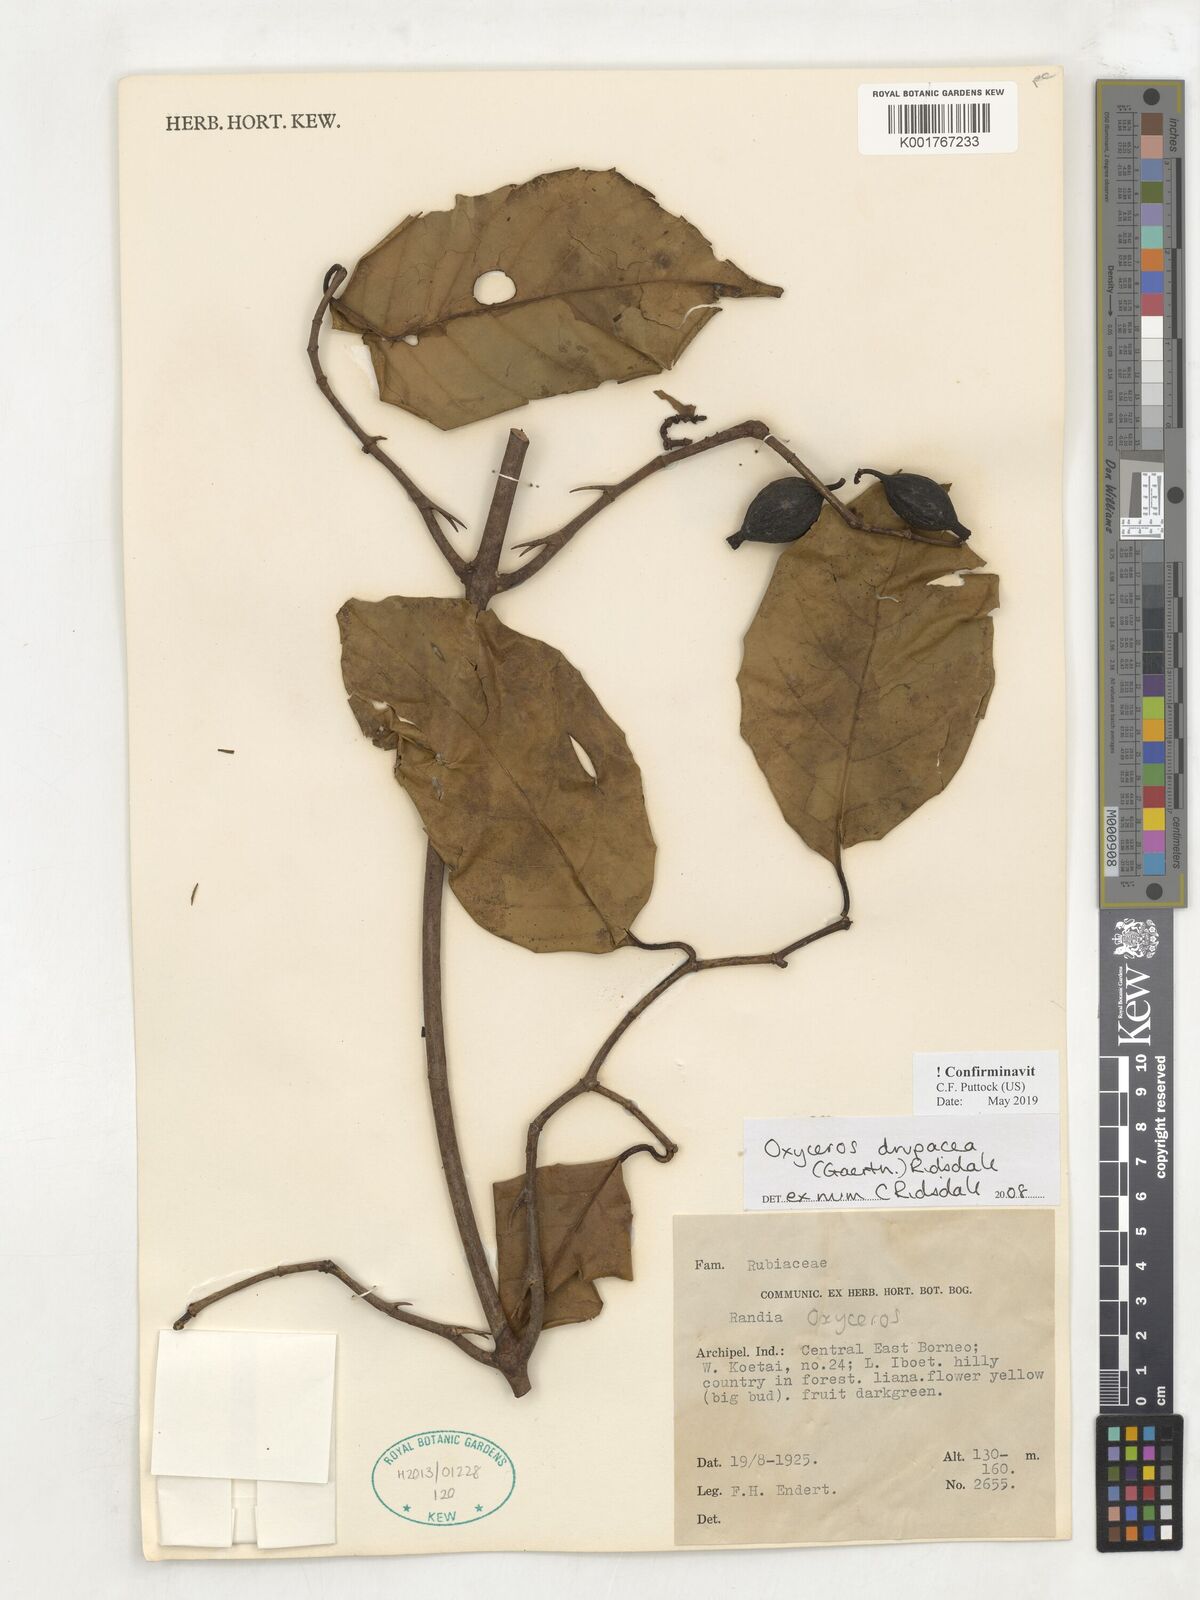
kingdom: Plantae
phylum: Tracheophyta
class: Magnoliopsida
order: Gentianales
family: Rubiaceae
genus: Oxyceros
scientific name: Oxyceros drupaceus
